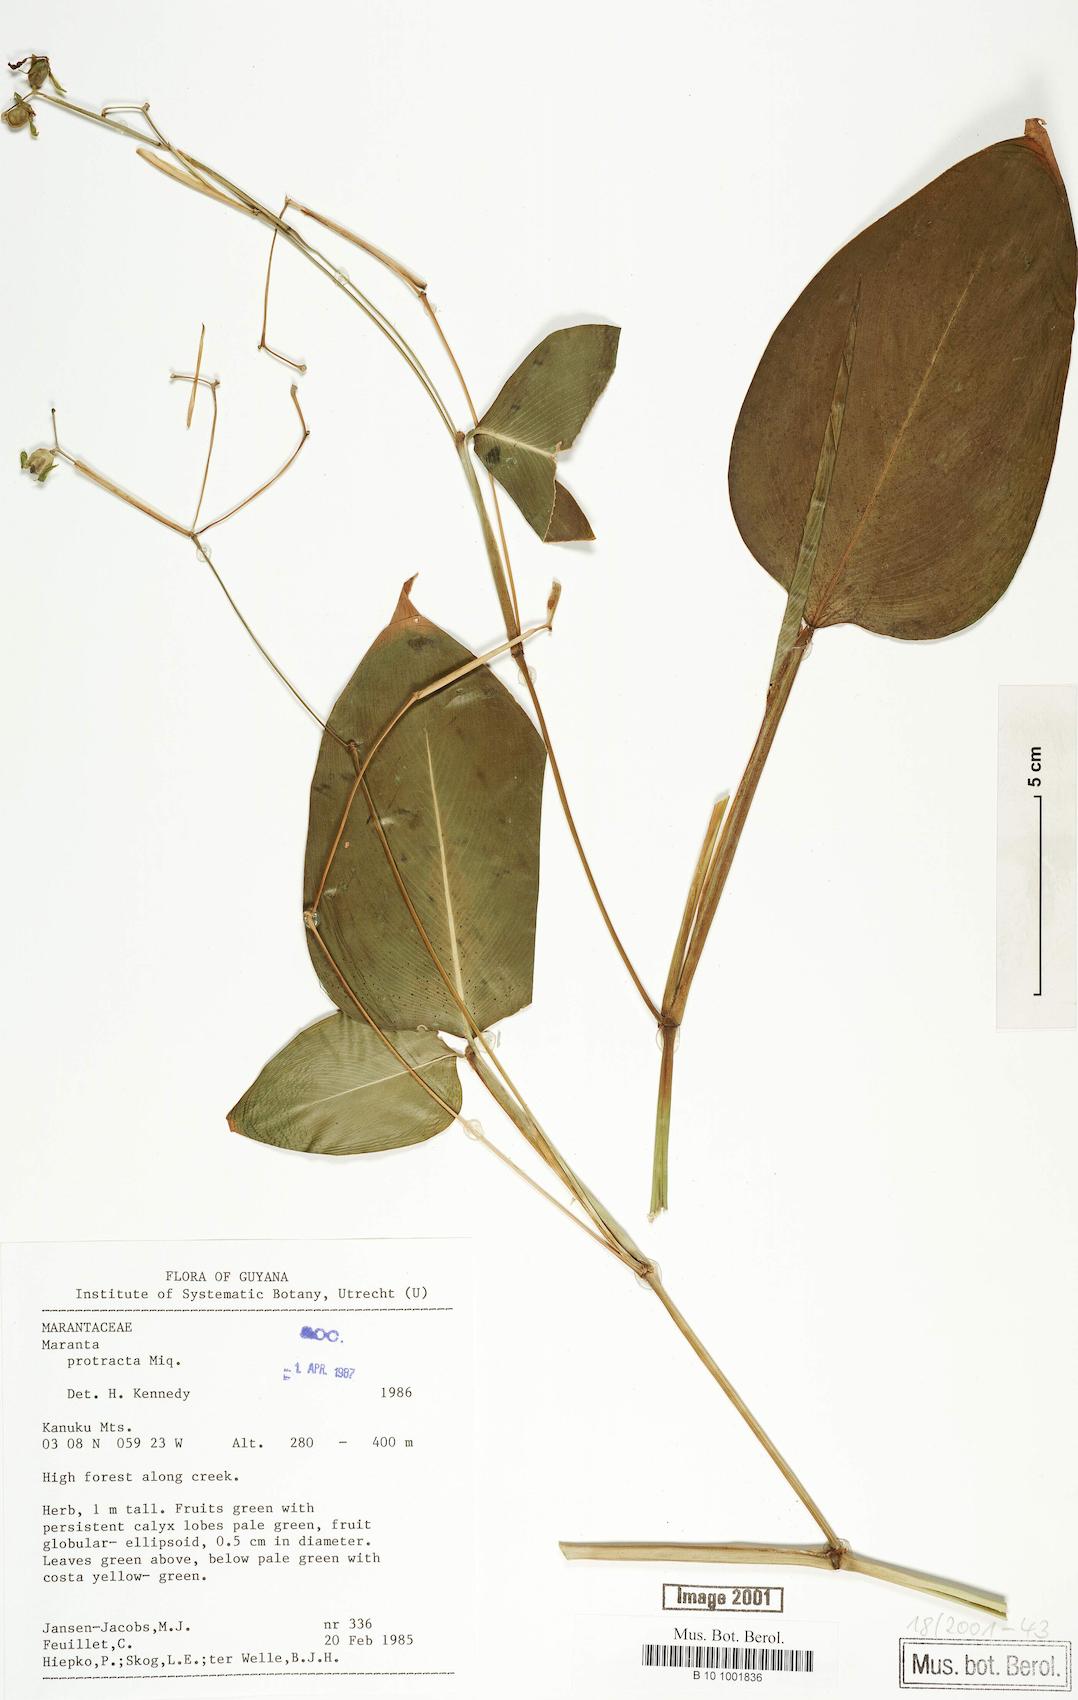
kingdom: Plantae
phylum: Tracheophyta
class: Liliopsida
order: Zingiberales
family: Marantaceae
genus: Maranta
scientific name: Maranta protracta
